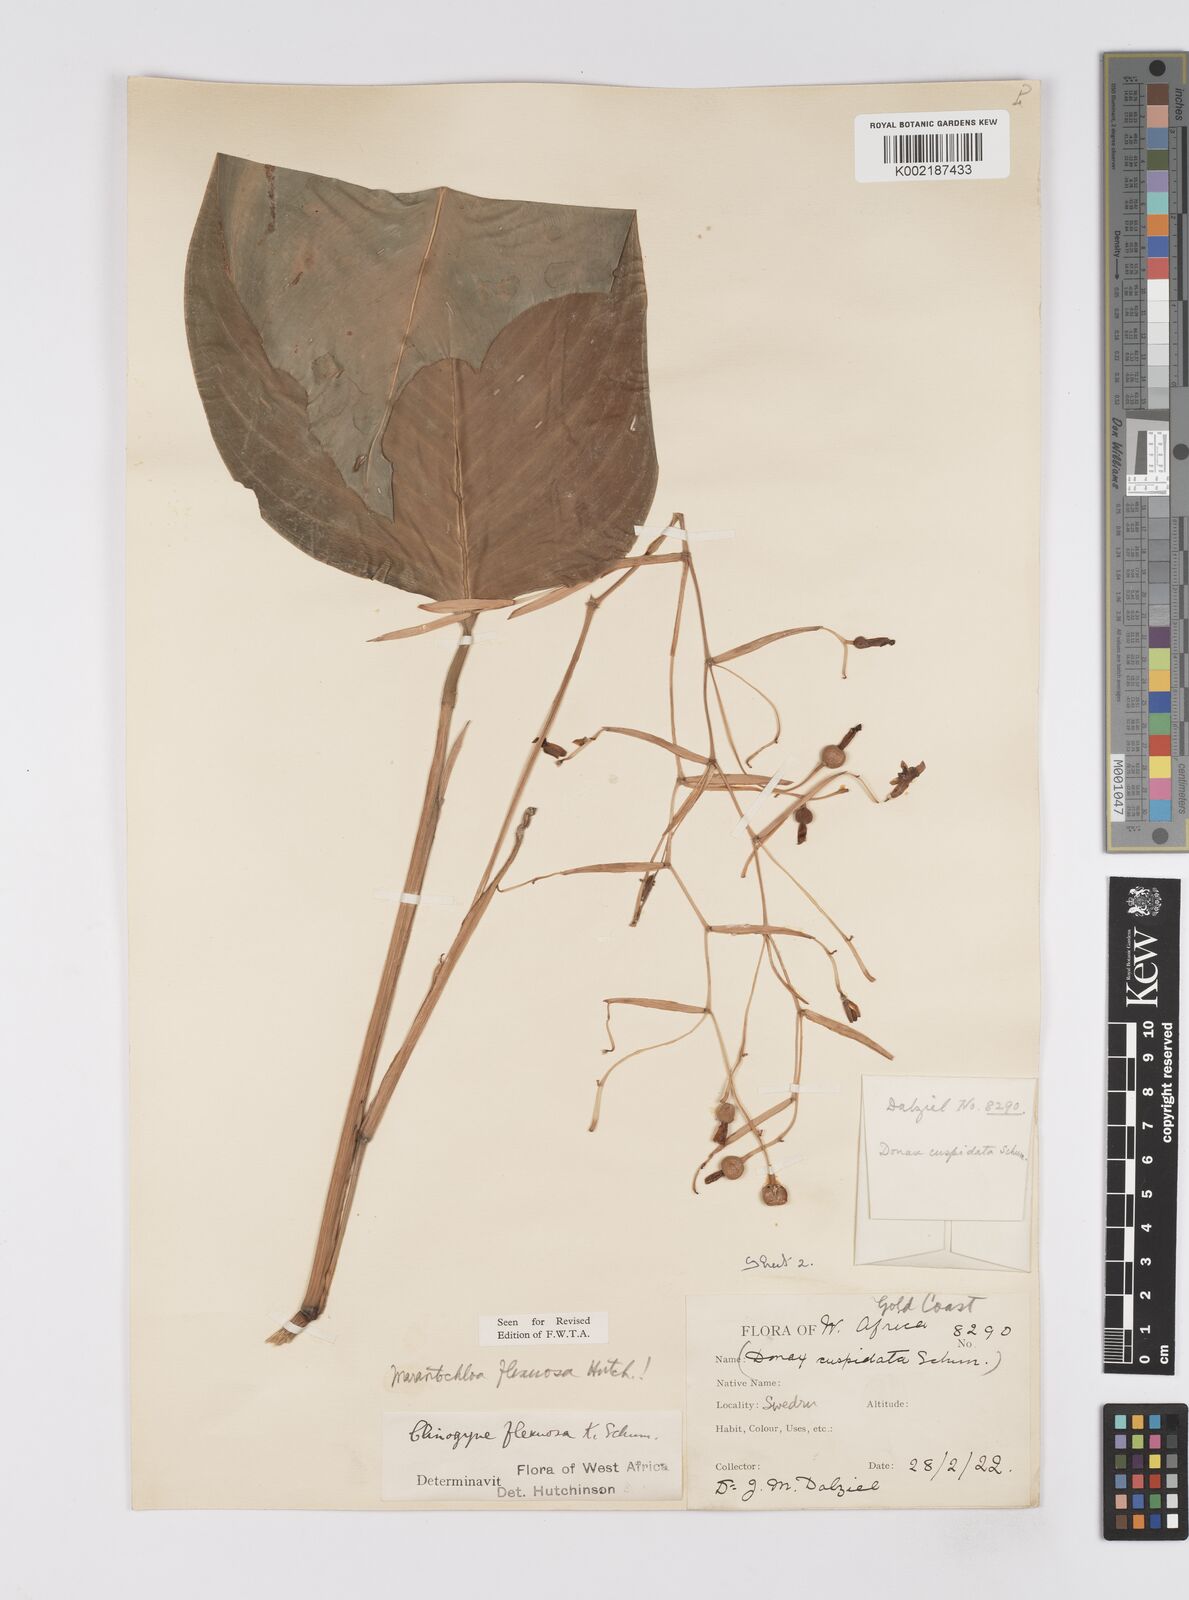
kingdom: Plantae
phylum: Tracheophyta
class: Liliopsida
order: Zingiberales
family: Marantaceae
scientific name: Marantaceae
